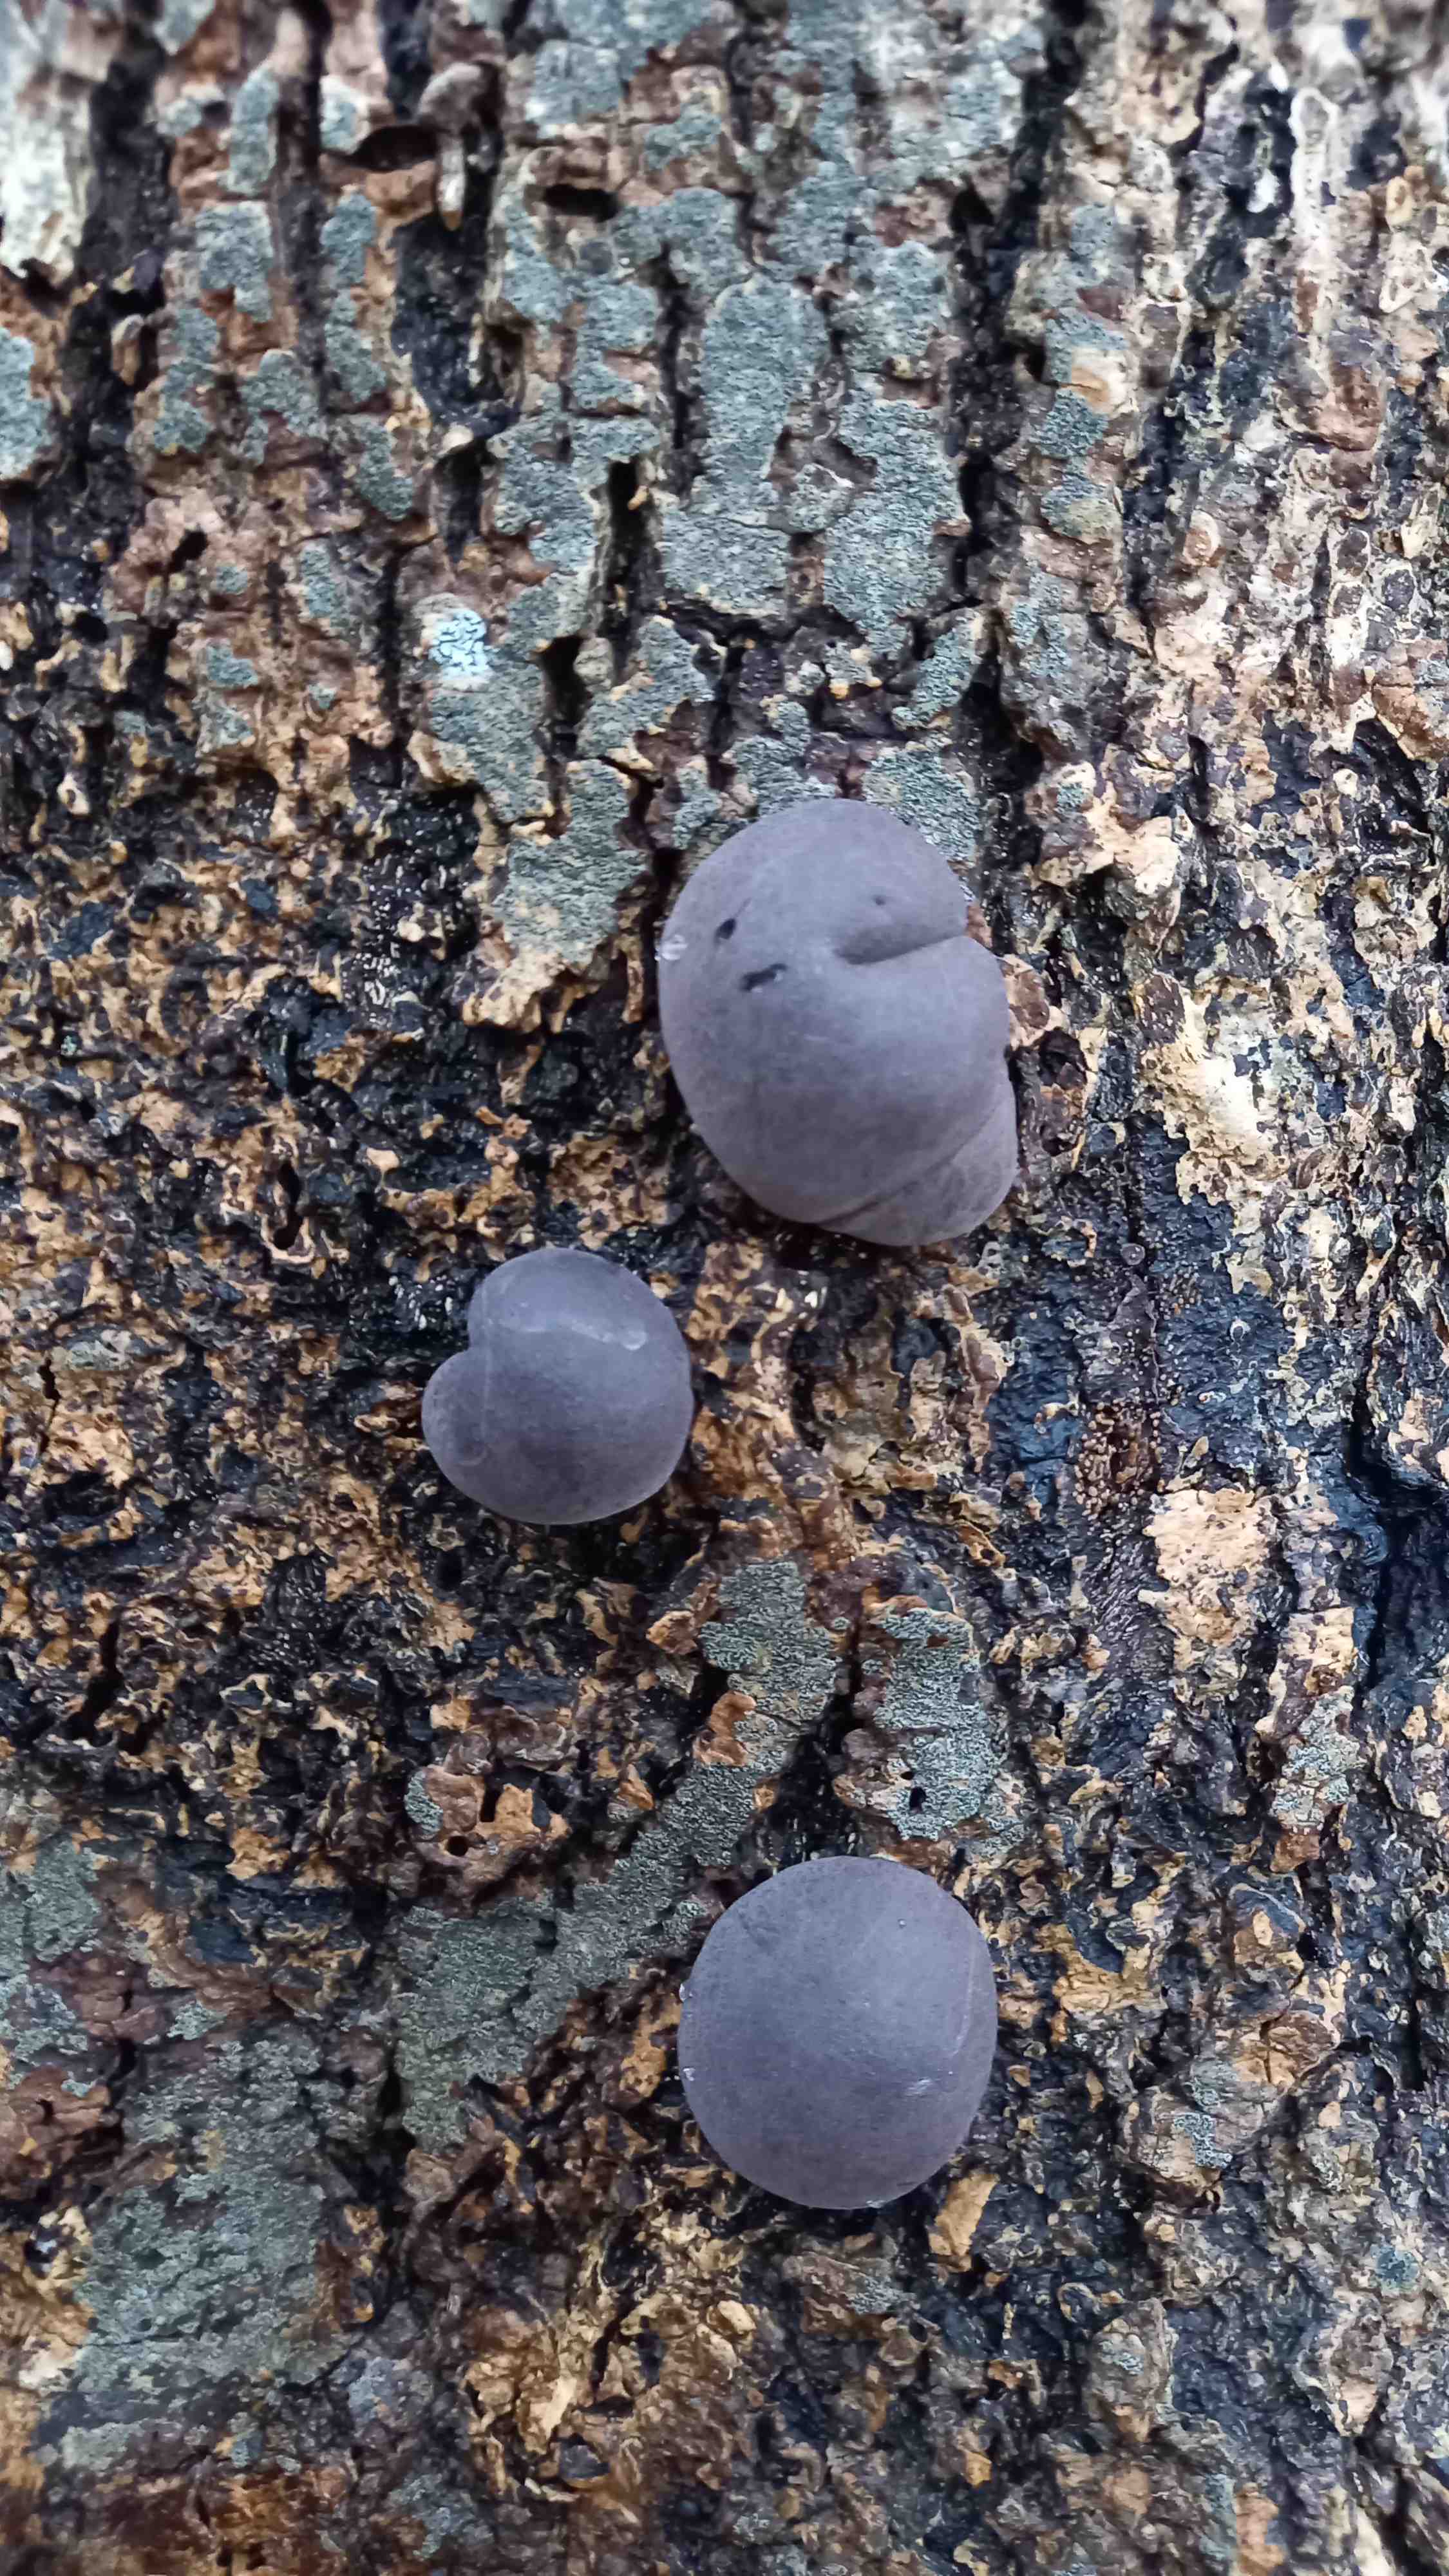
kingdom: Fungi
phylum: Ascomycota
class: Sordariomycetes
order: Xylariales
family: Hypoxylaceae
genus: Daldinia
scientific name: Daldinia concentrica
